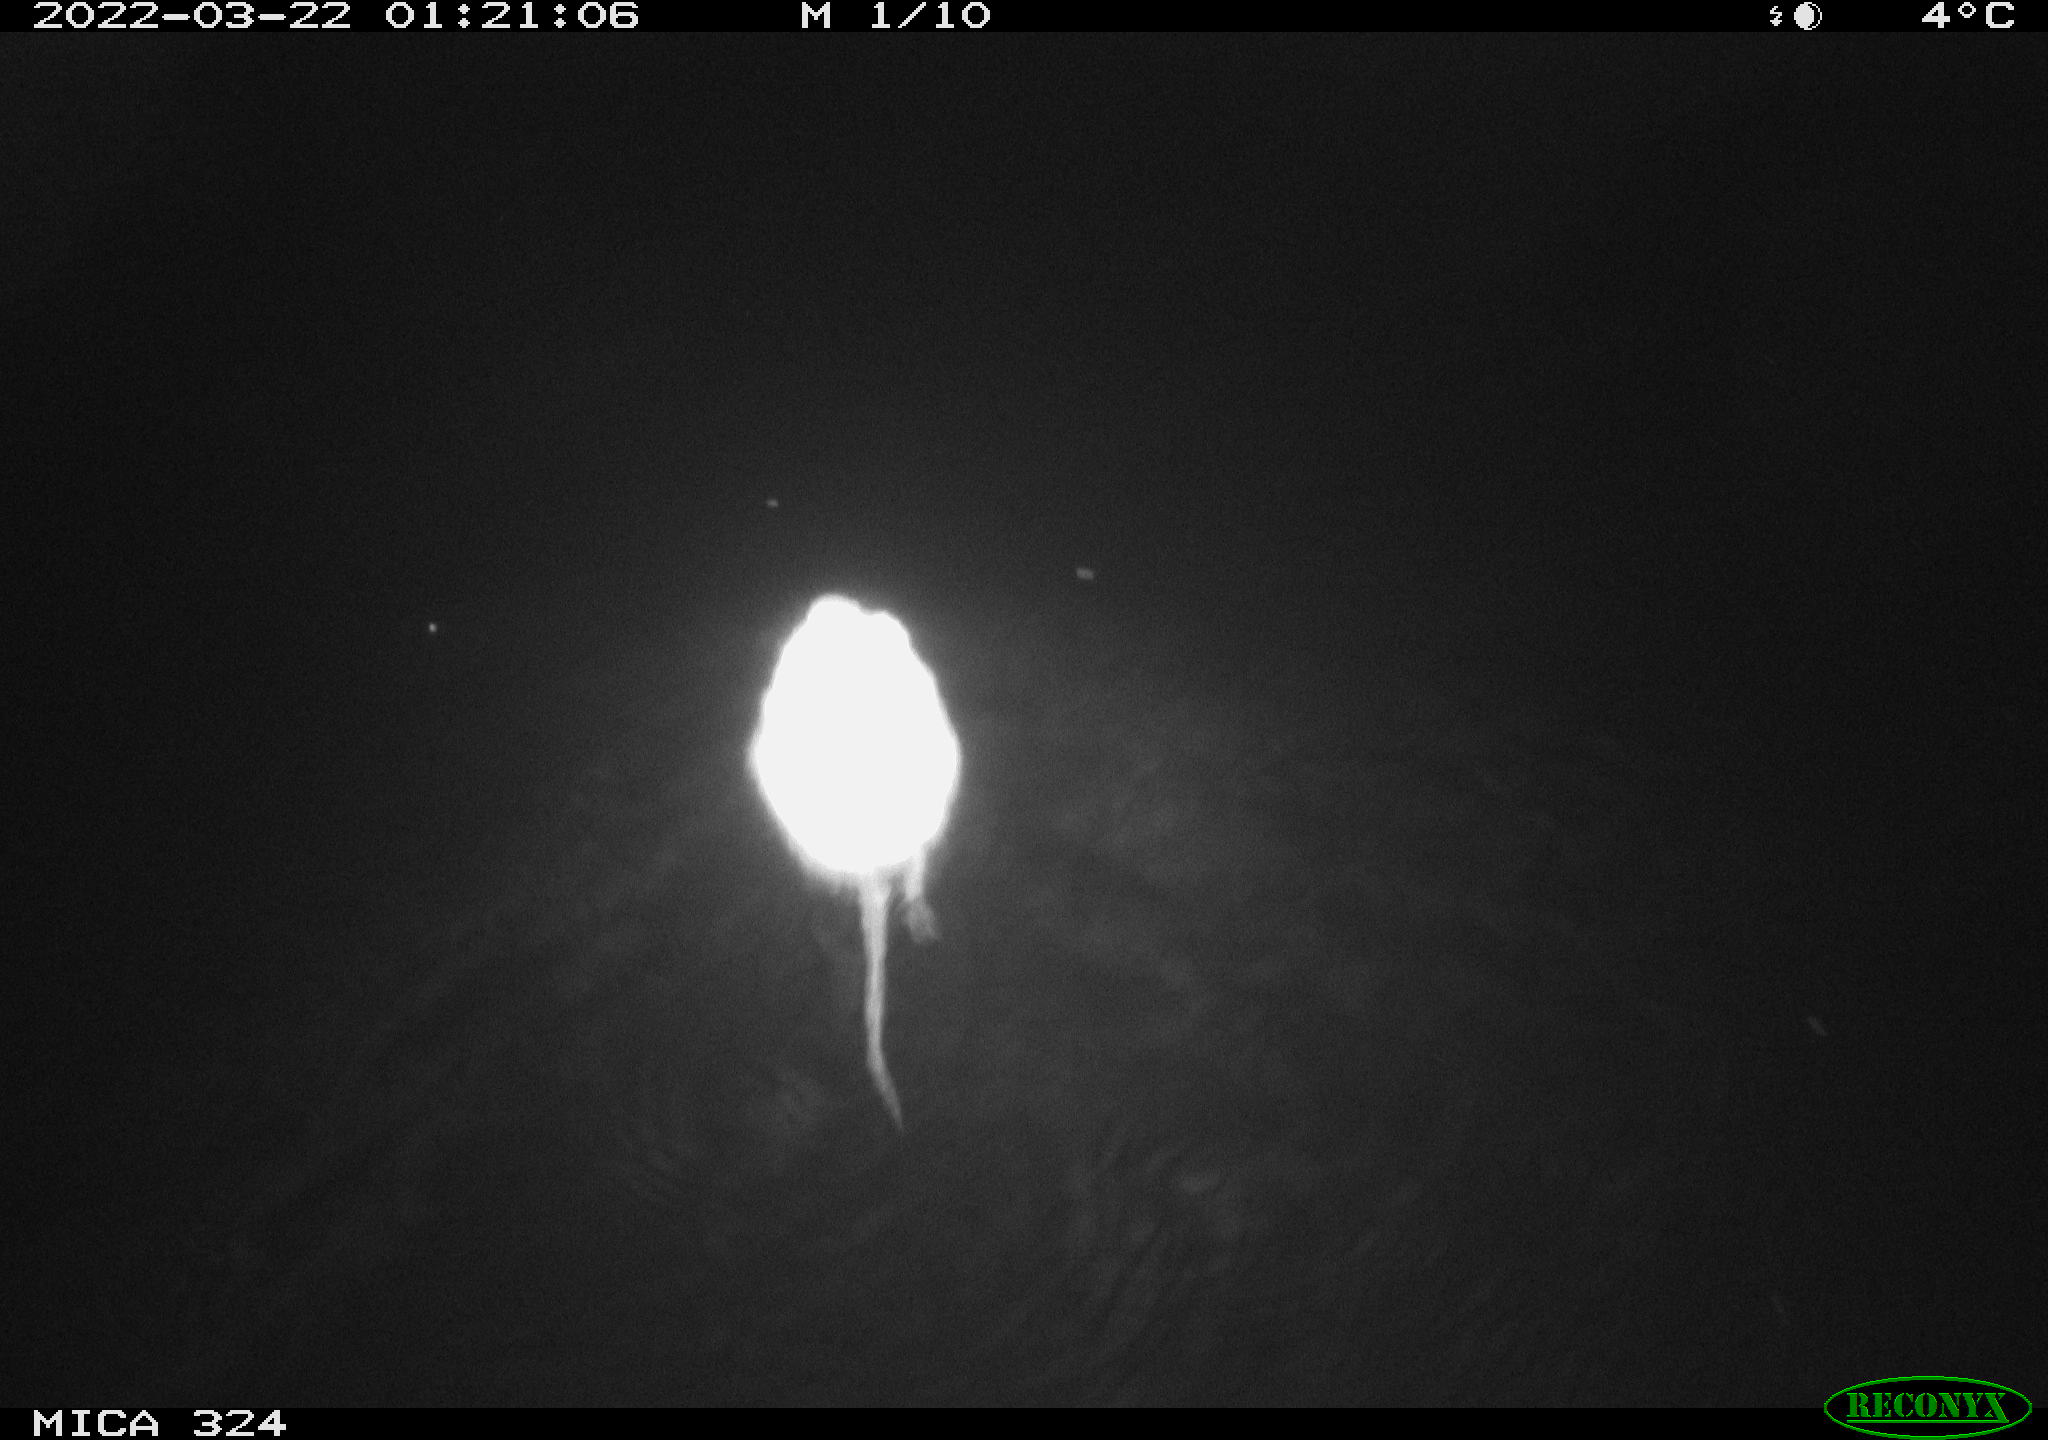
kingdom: Animalia
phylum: Chordata
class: Mammalia
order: Rodentia
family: Cricetidae
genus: Ondatra
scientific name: Ondatra zibethicus
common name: Muskrat
